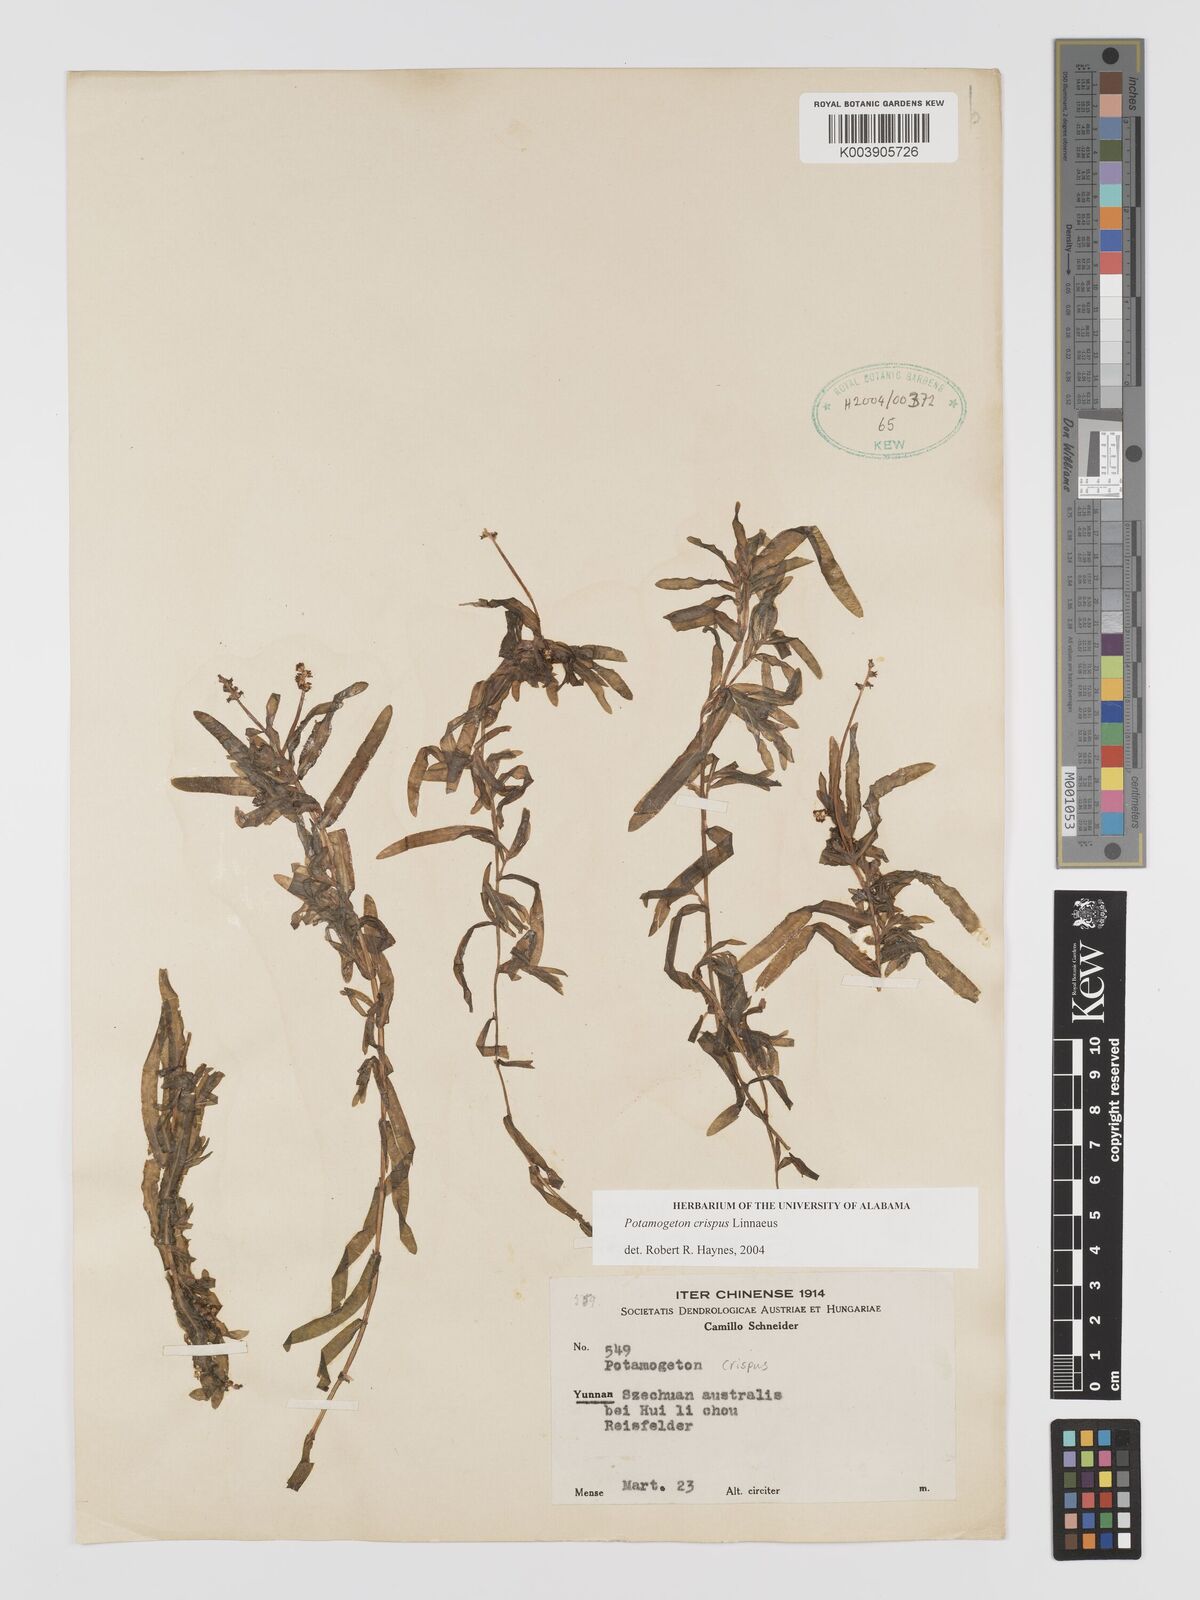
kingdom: Plantae
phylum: Tracheophyta
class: Liliopsida
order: Alismatales
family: Potamogetonaceae
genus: Potamogeton
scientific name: Potamogeton crispus
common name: Curled pondweed
